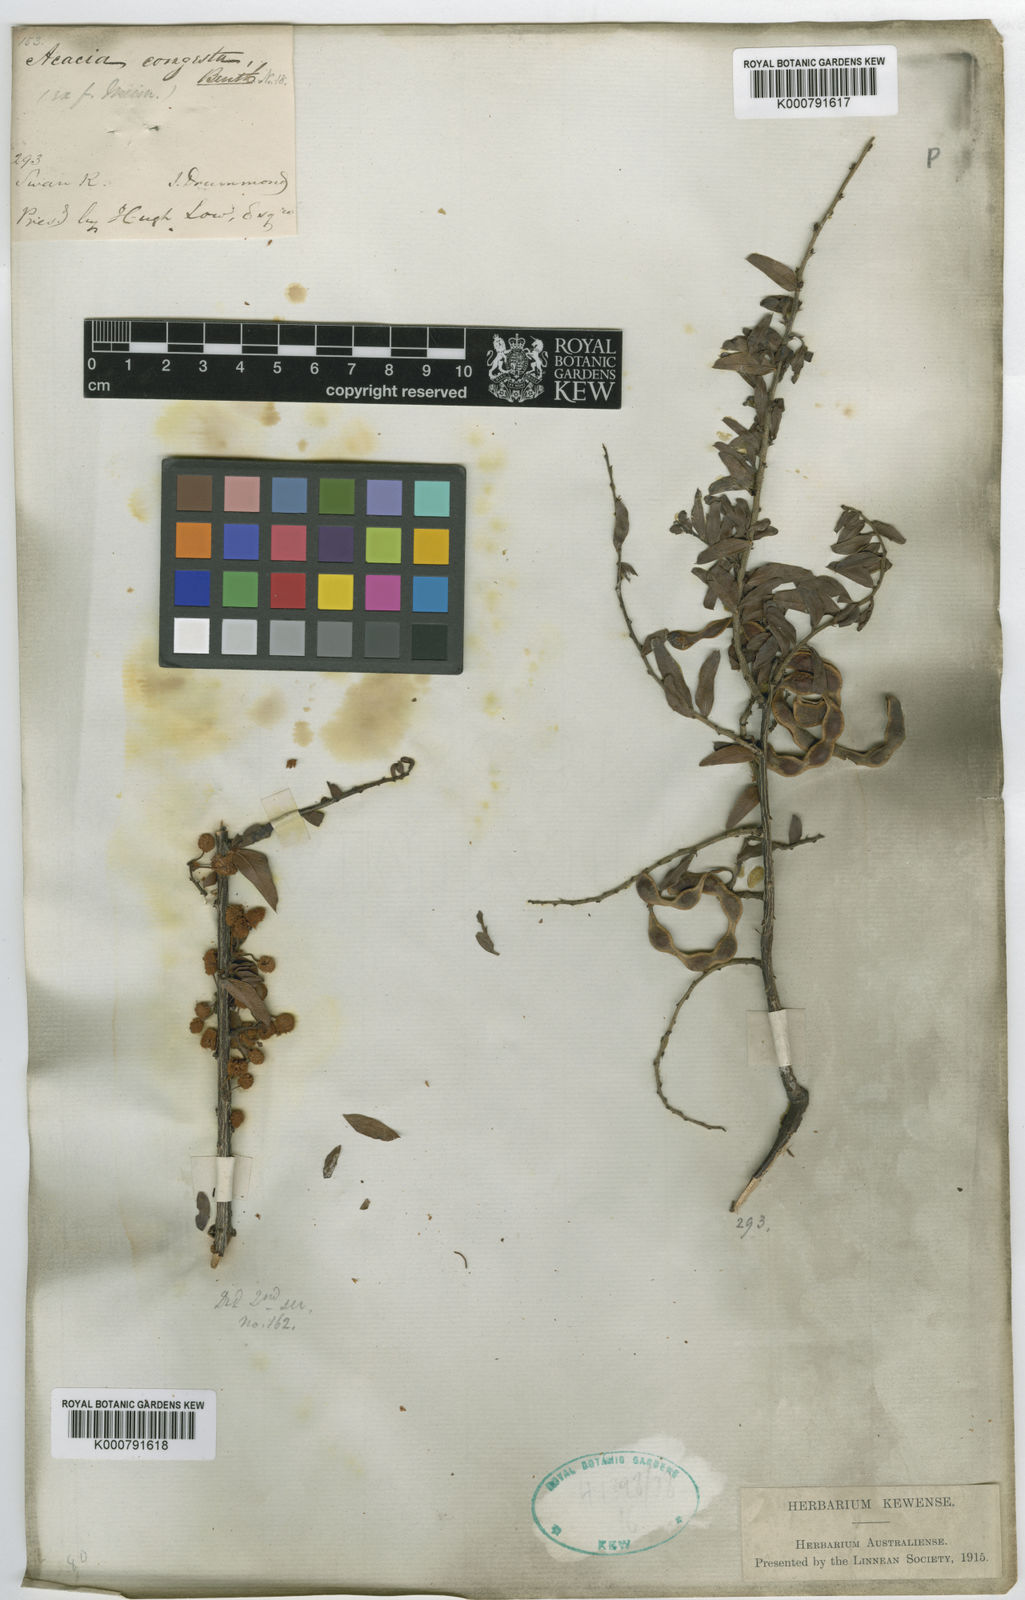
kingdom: Plantae
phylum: Tracheophyta
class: Magnoliopsida
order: Fabales
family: Fabaceae
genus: Acacia
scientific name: Acacia congesta
